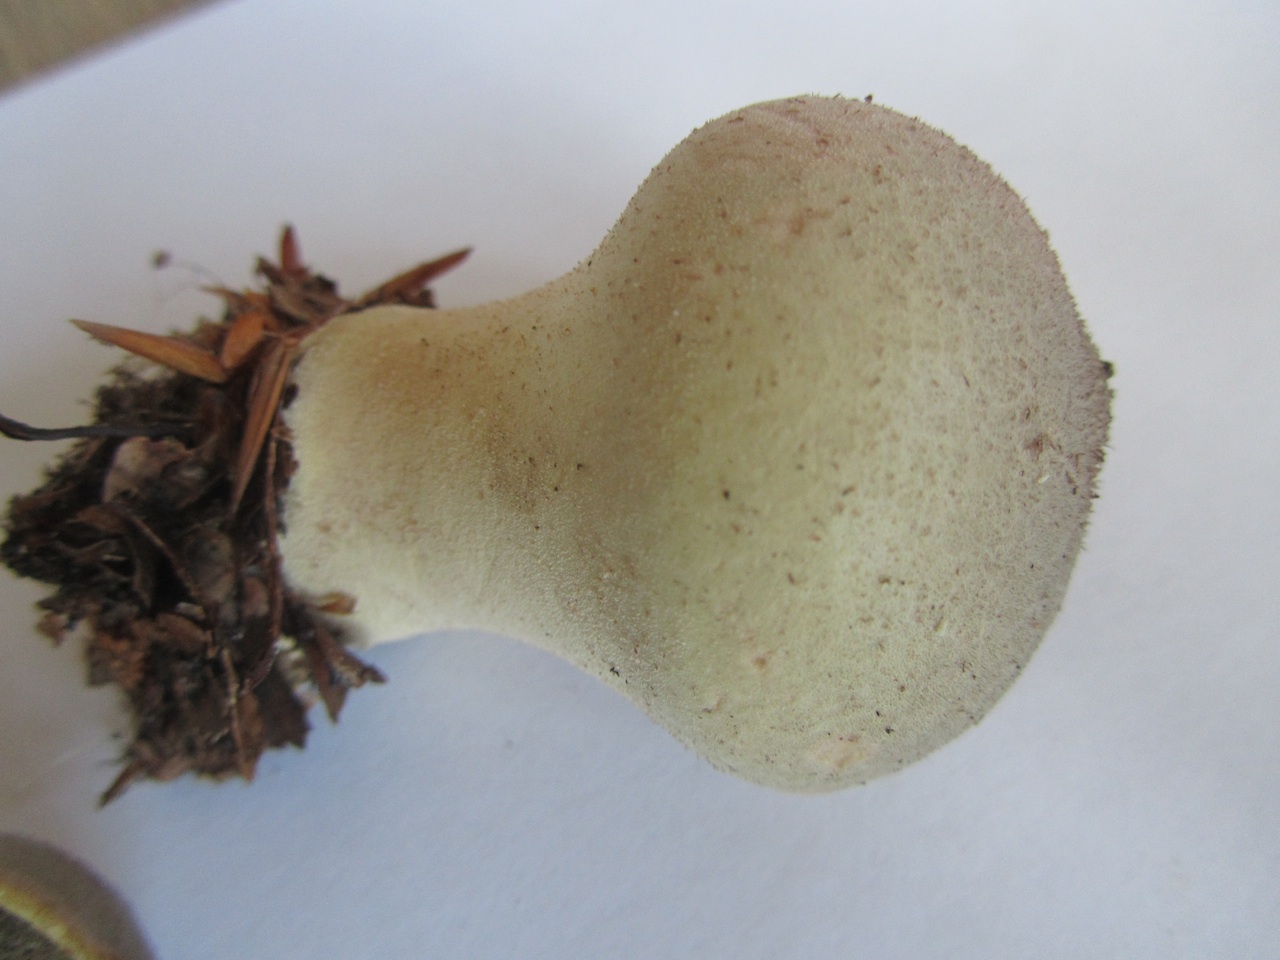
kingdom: Fungi
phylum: Basidiomycota
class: Agaricomycetes
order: Agaricales
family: Lycoperdaceae
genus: Lycoperdon
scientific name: Lycoperdon molle
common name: skov-støvbold
